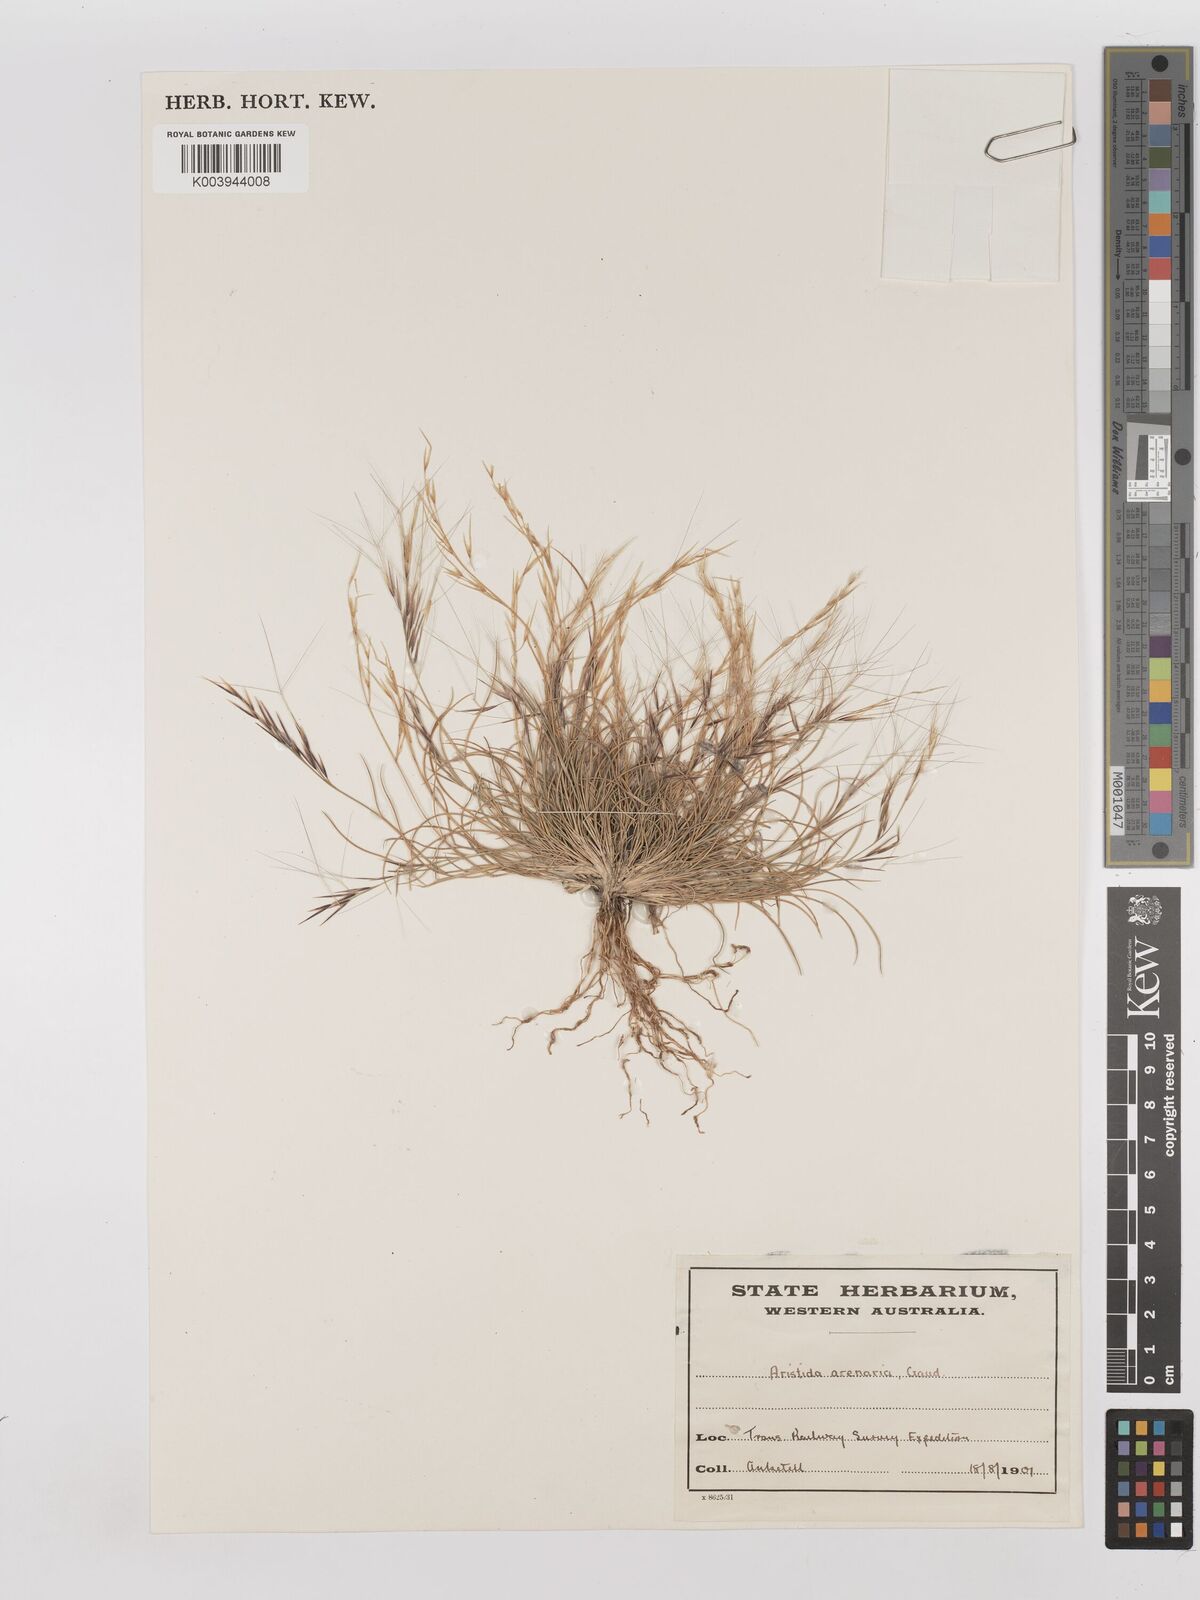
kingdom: Plantae
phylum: Tracheophyta
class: Liliopsida
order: Poales
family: Poaceae
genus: Aristida
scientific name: Aristida contorta
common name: Bunch kerosene grass
